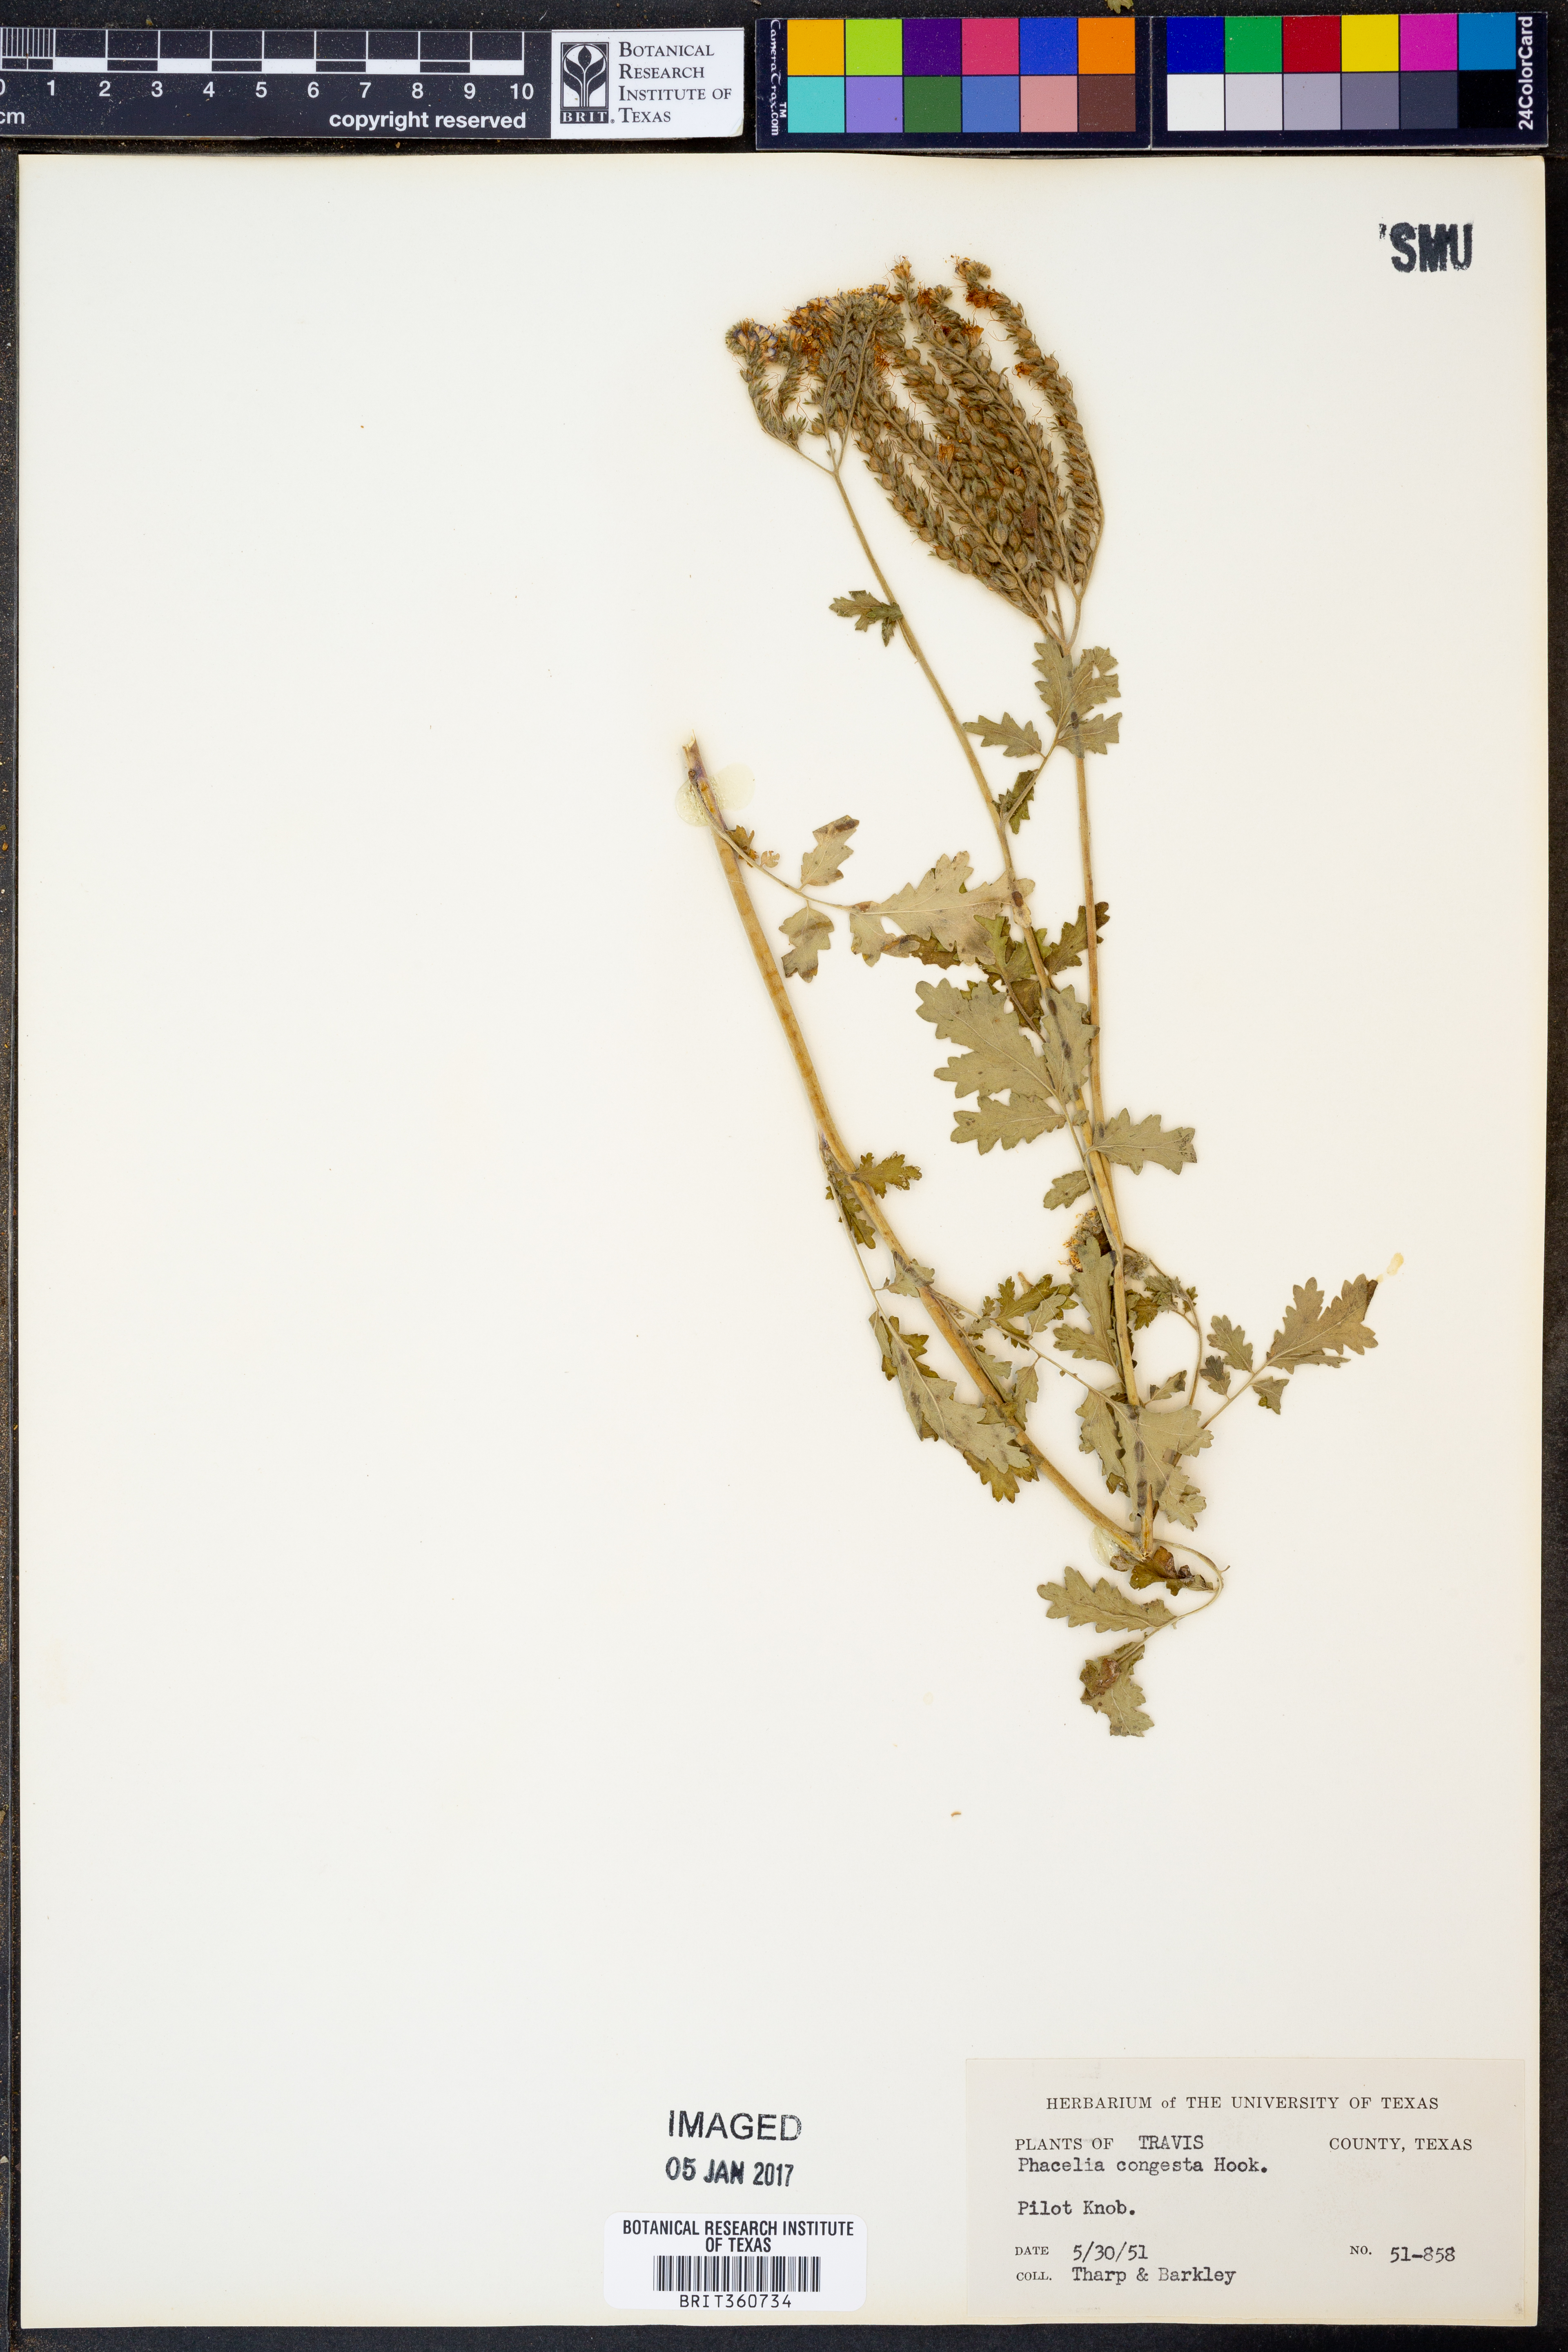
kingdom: Plantae
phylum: Tracheophyta
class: Magnoliopsida
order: Boraginales
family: Hydrophyllaceae
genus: Phacelia
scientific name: Phacelia congesta
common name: Blue curls
